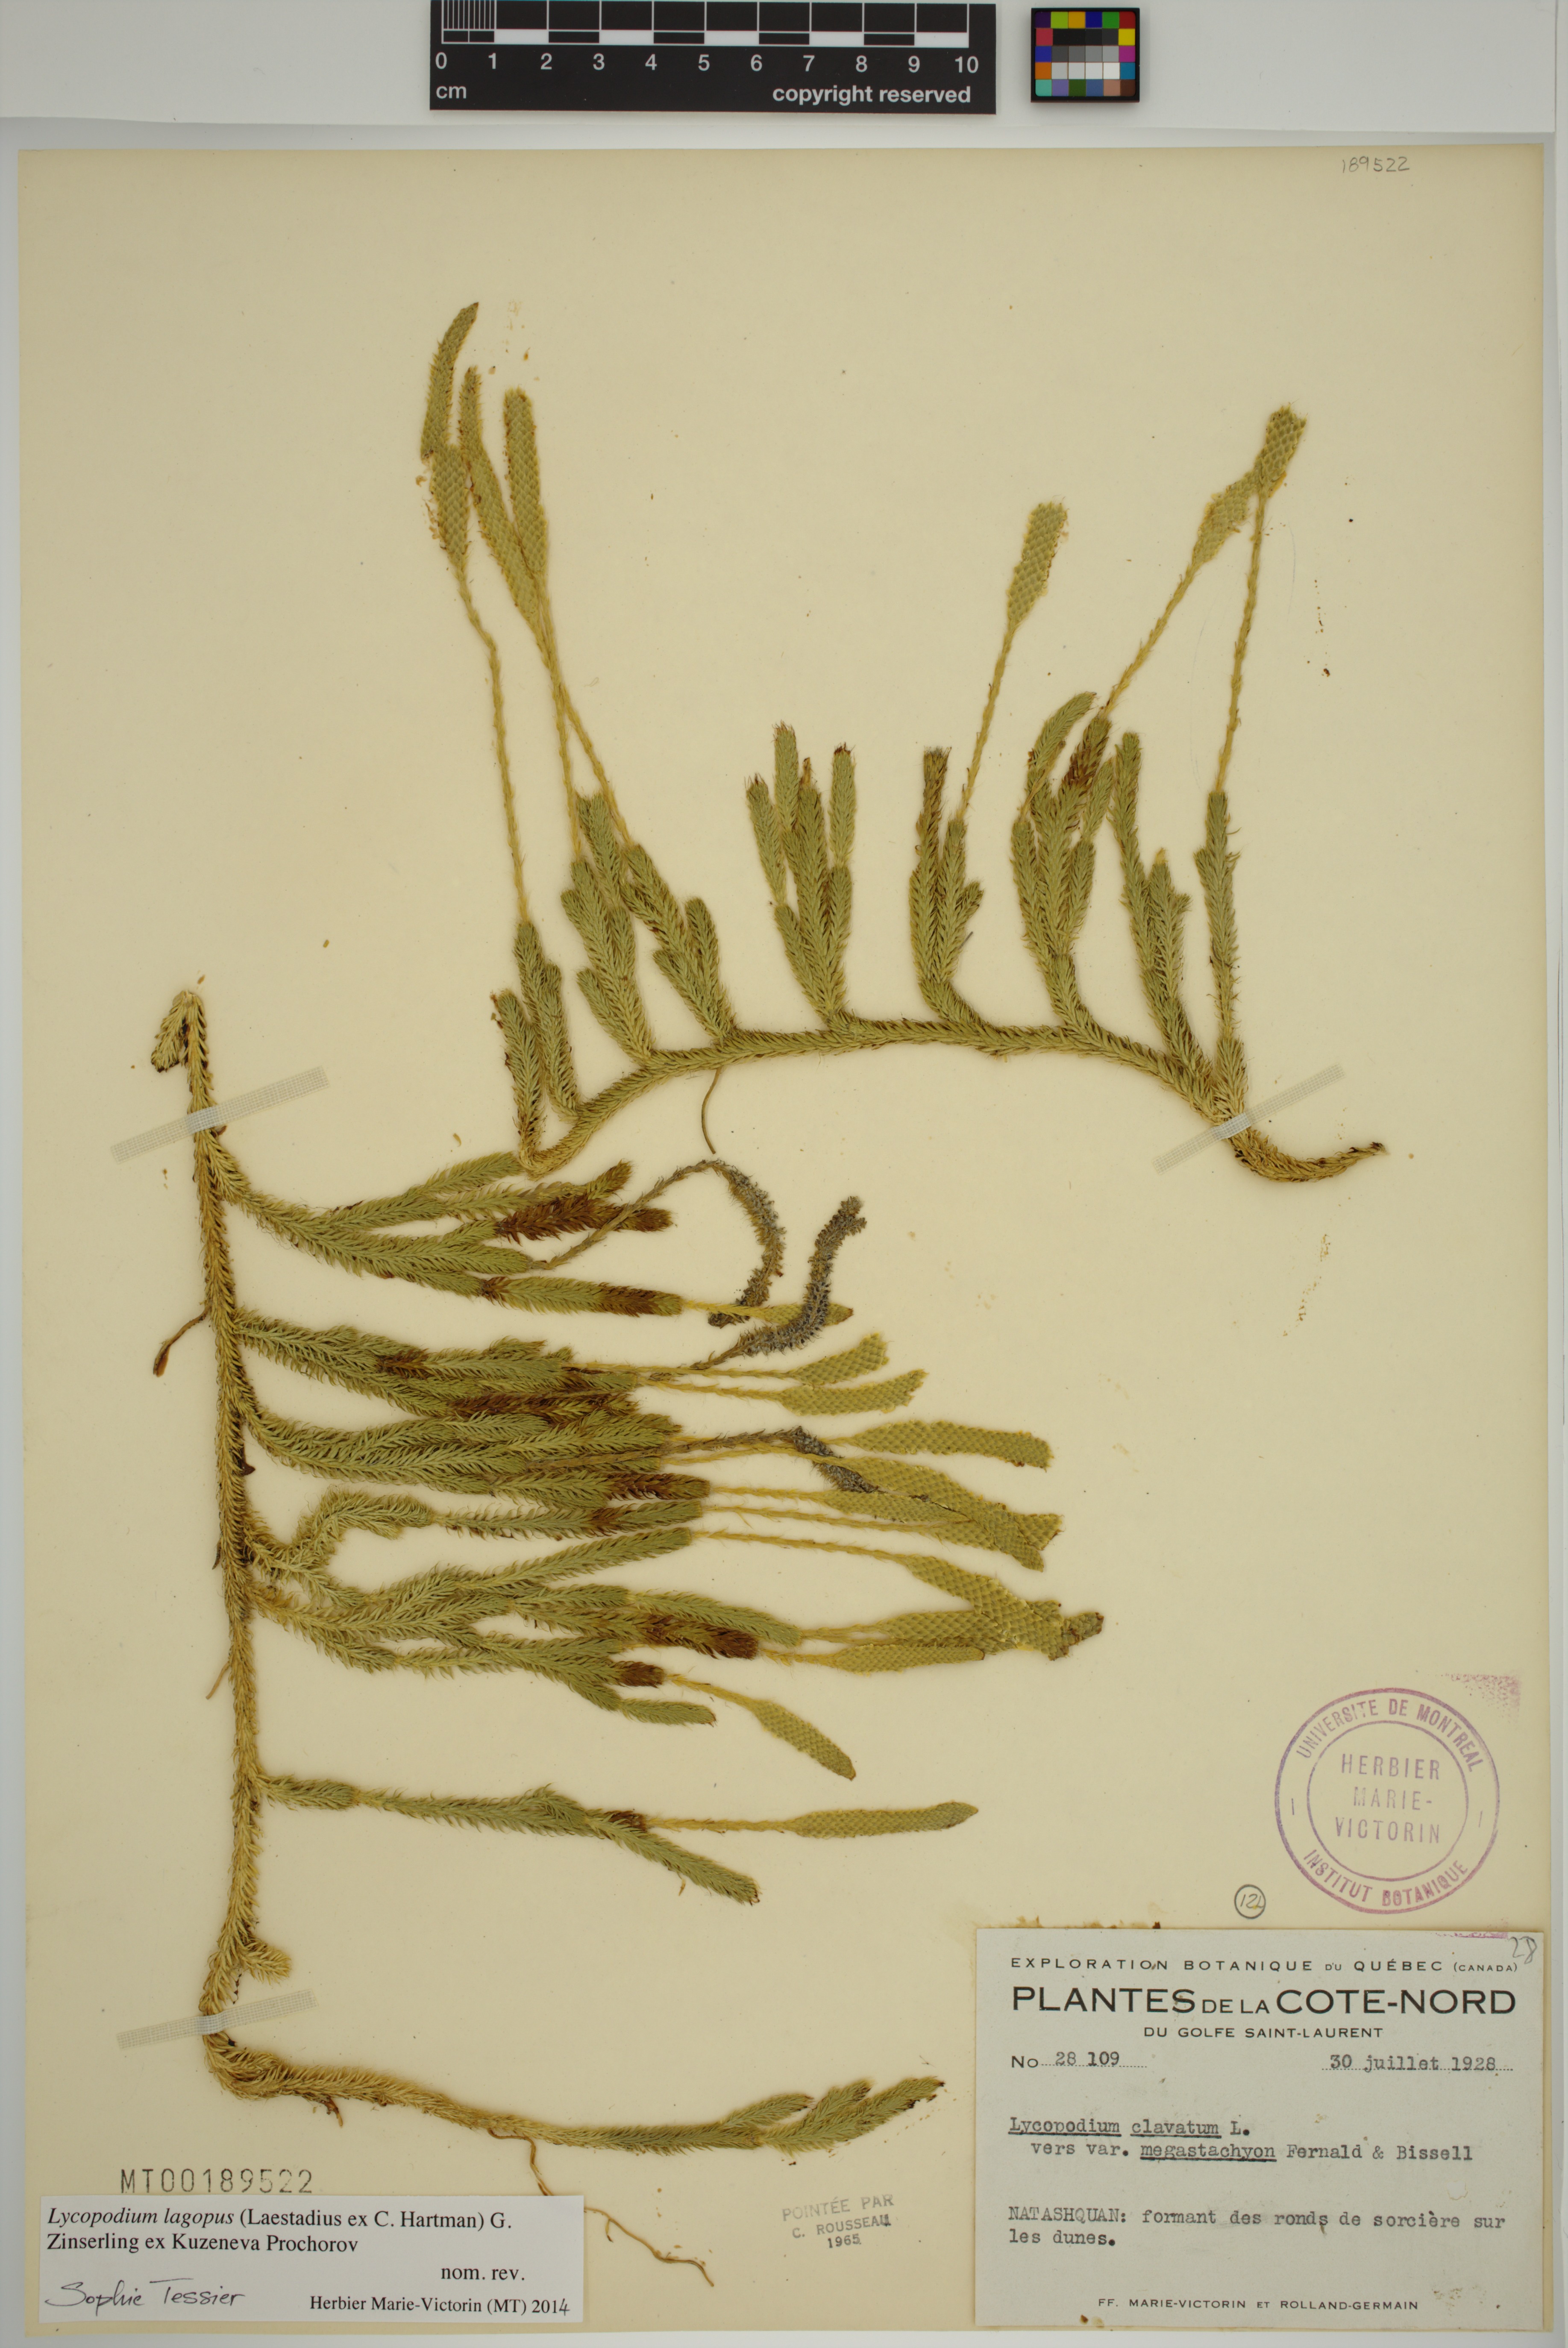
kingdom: Plantae
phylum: Tracheophyta
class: Lycopodiopsida
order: Lycopodiales
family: Lycopodiaceae
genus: Lycopodium
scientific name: Lycopodium lagopus
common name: One-cone clubmoss
